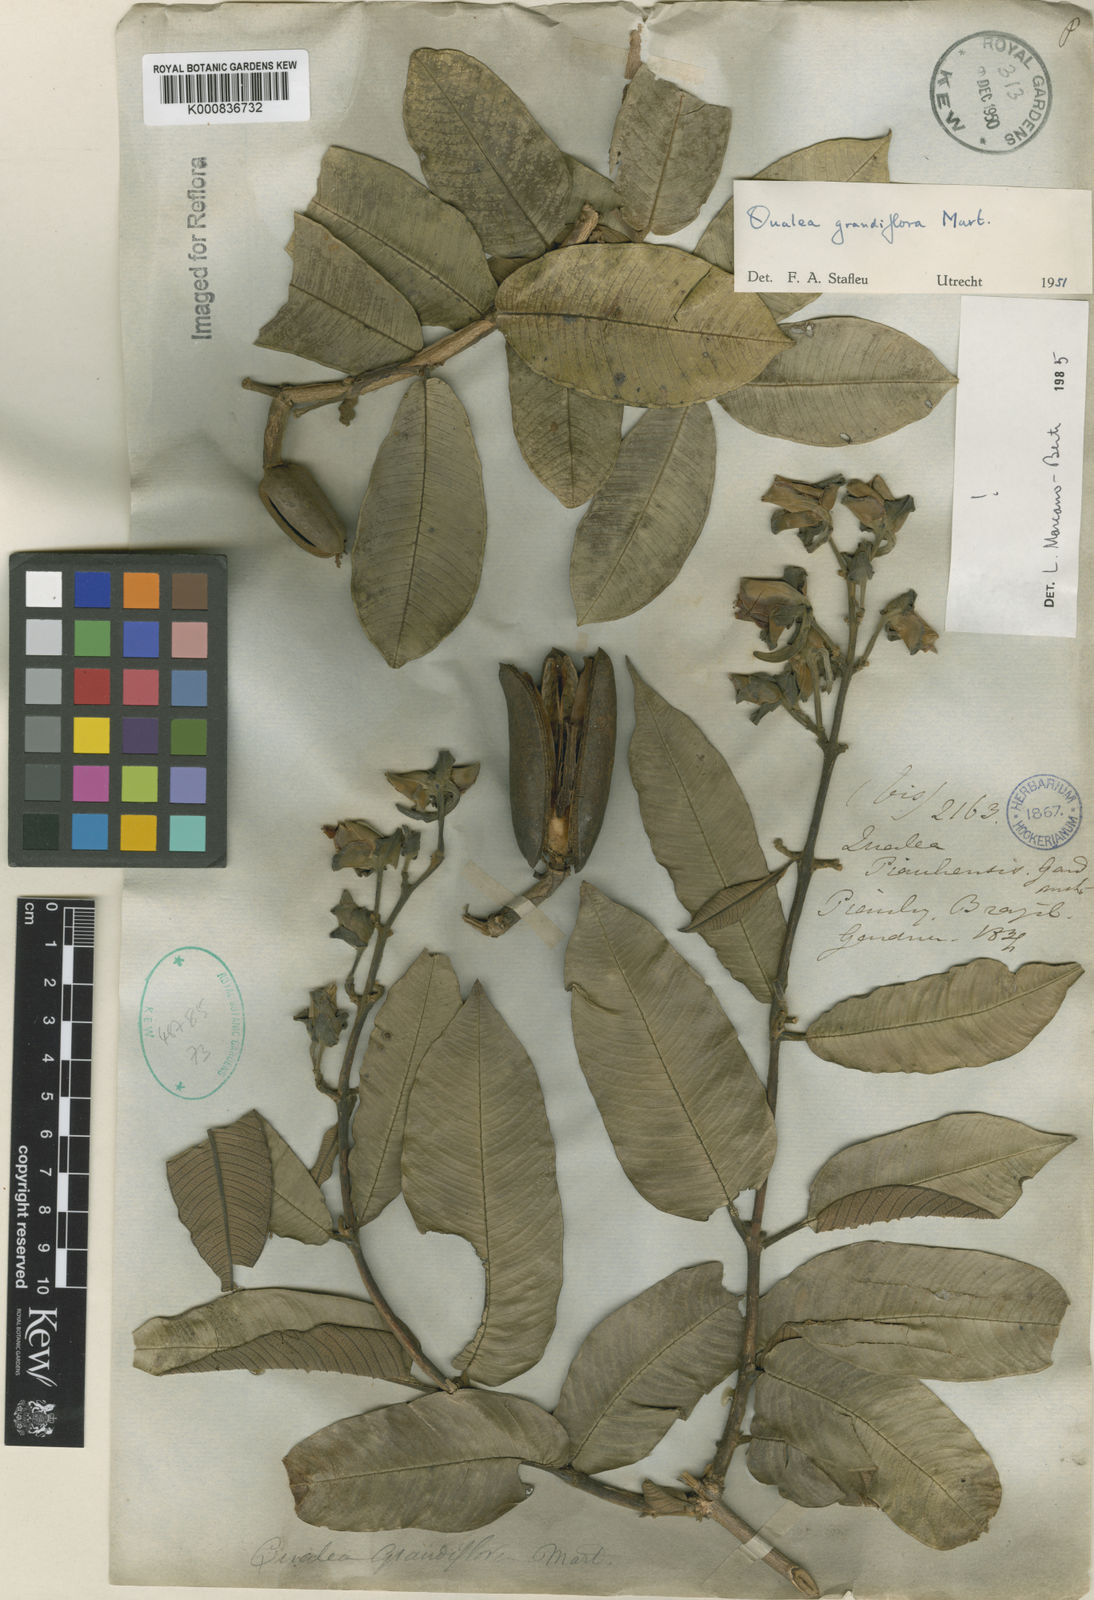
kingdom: Plantae
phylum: Tracheophyta
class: Magnoliopsida
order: Myrtales
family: Vochysiaceae
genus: Qualea
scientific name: Qualea grandiflora
